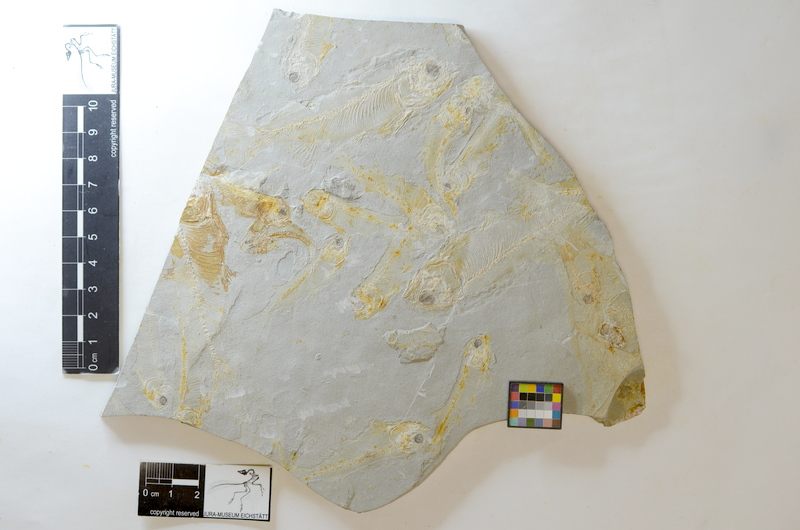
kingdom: Animalia
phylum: Chordata
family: Leptolepididae
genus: Lycoptera
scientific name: Lycoptera davidi
